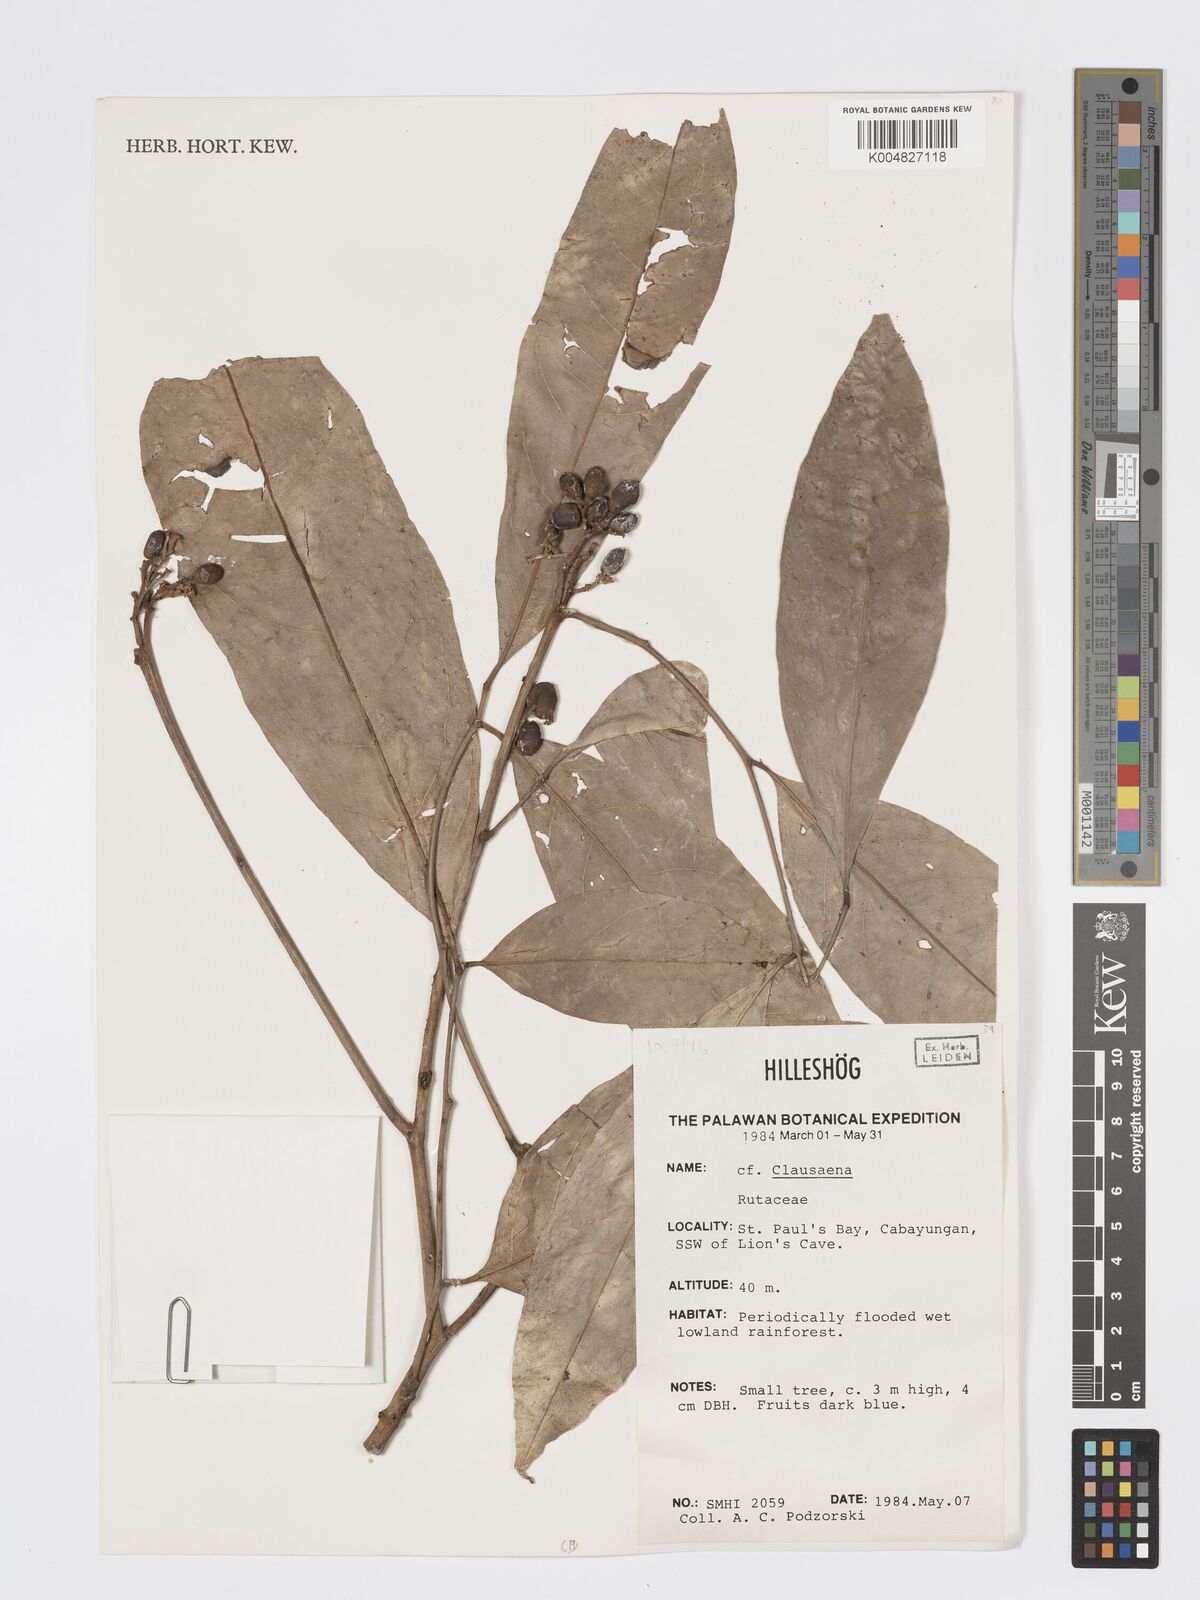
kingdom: Plantae
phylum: Tracheophyta
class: Magnoliopsida
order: Sapindales
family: Rutaceae
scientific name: Rutaceae
